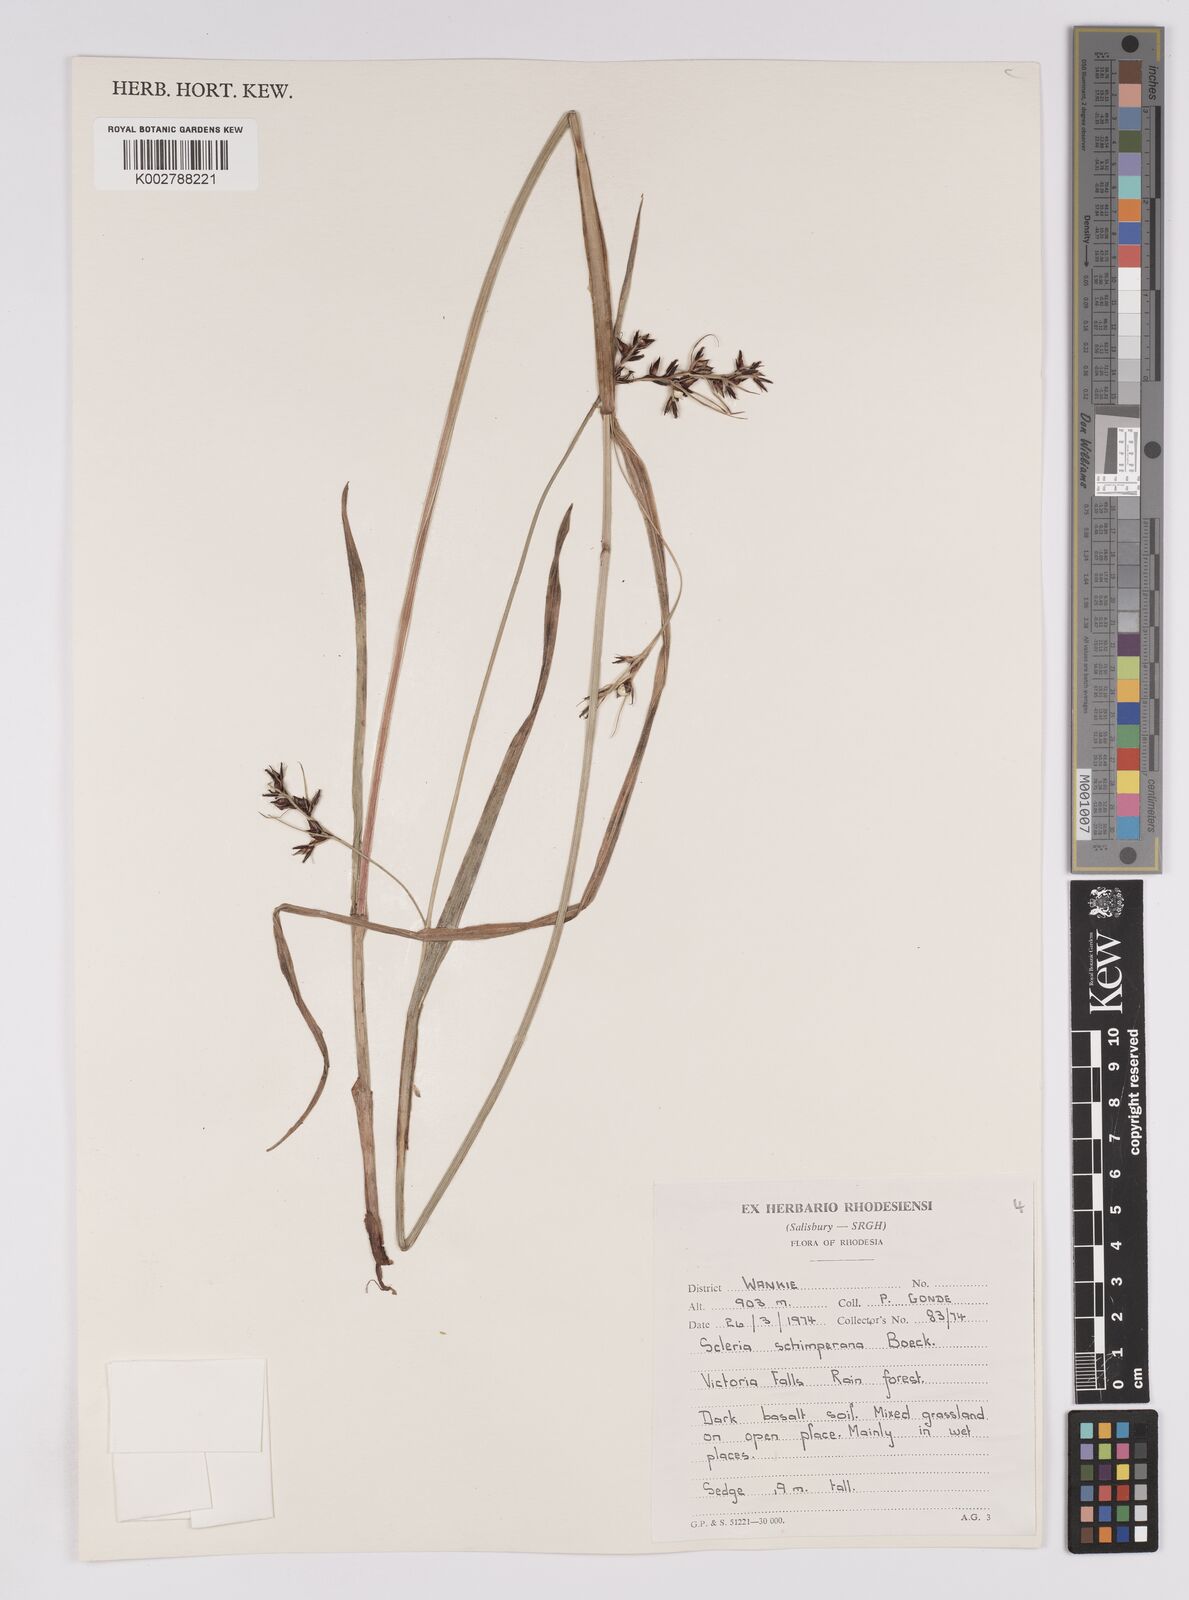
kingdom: Plantae
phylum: Tracheophyta
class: Liliopsida
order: Poales
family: Cyperaceae
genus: Scleria
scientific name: Scleria schimperiana
